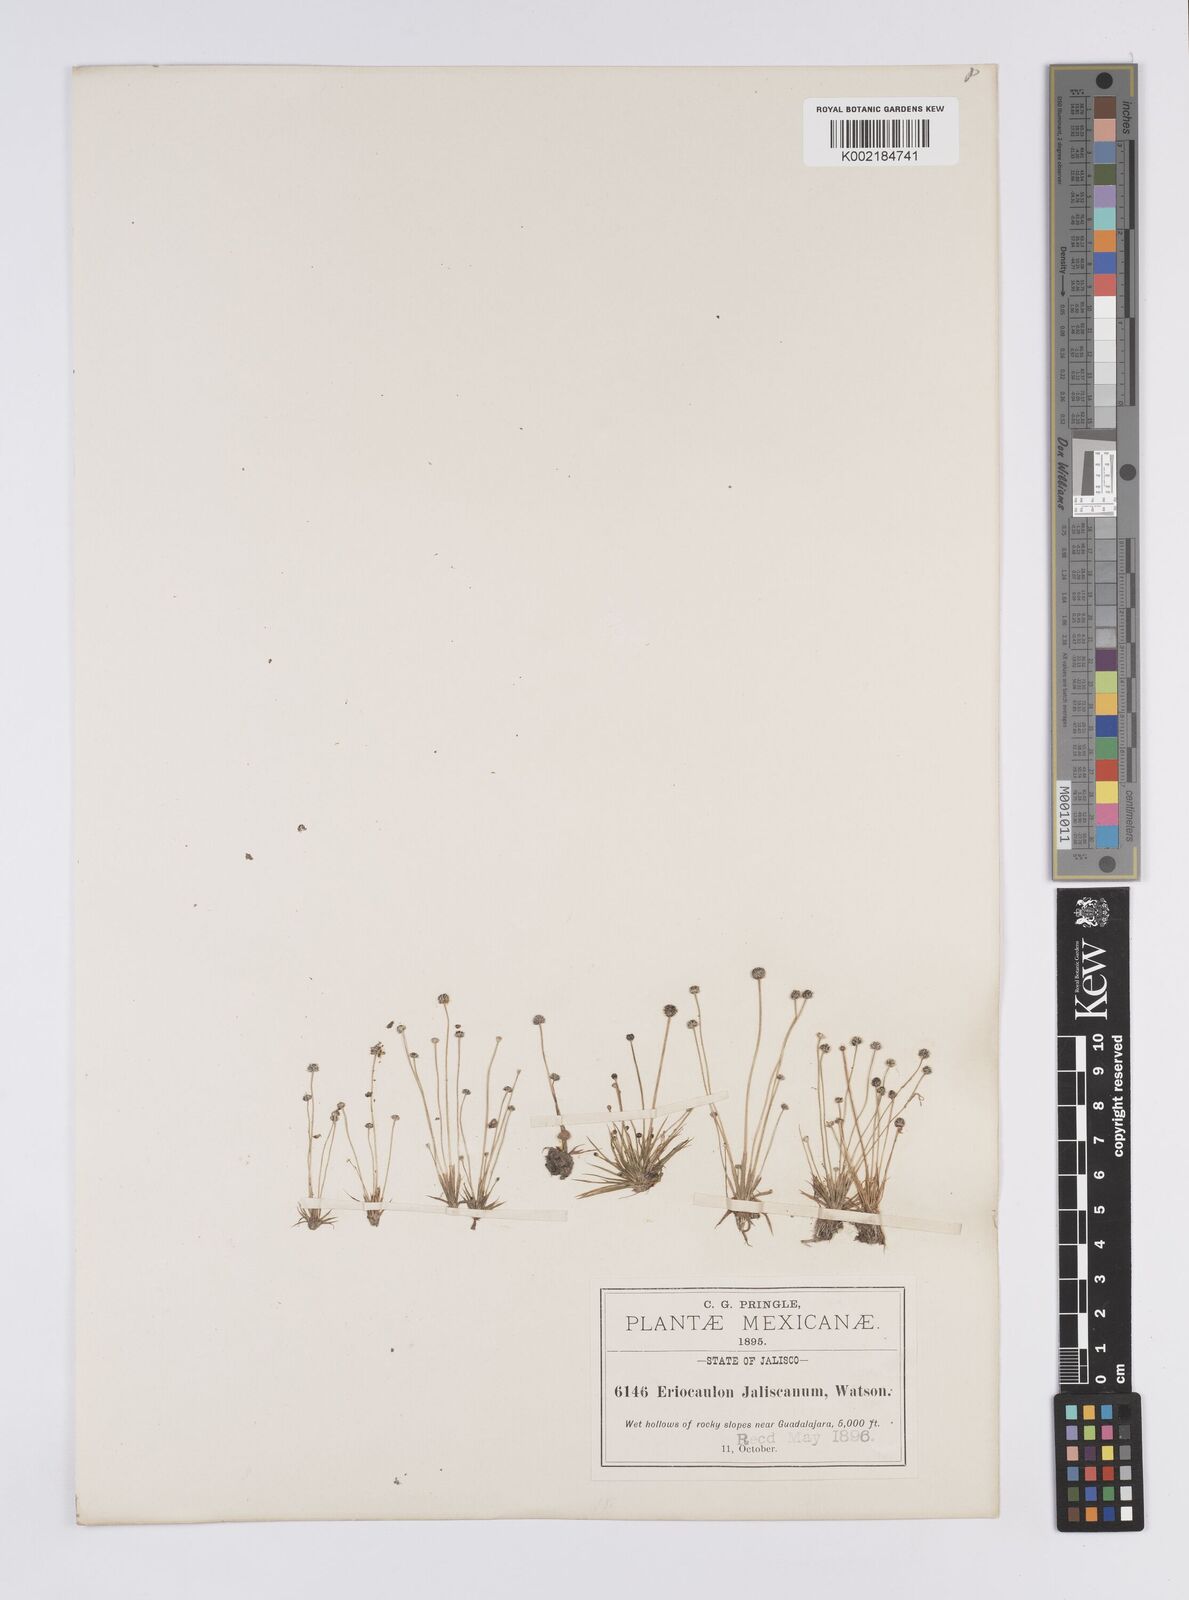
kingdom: Plantae
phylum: Tracheophyta
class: Liliopsida
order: Poales
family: Eriocaulaceae
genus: Eriocaulon
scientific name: Eriocaulon schiedeanum
